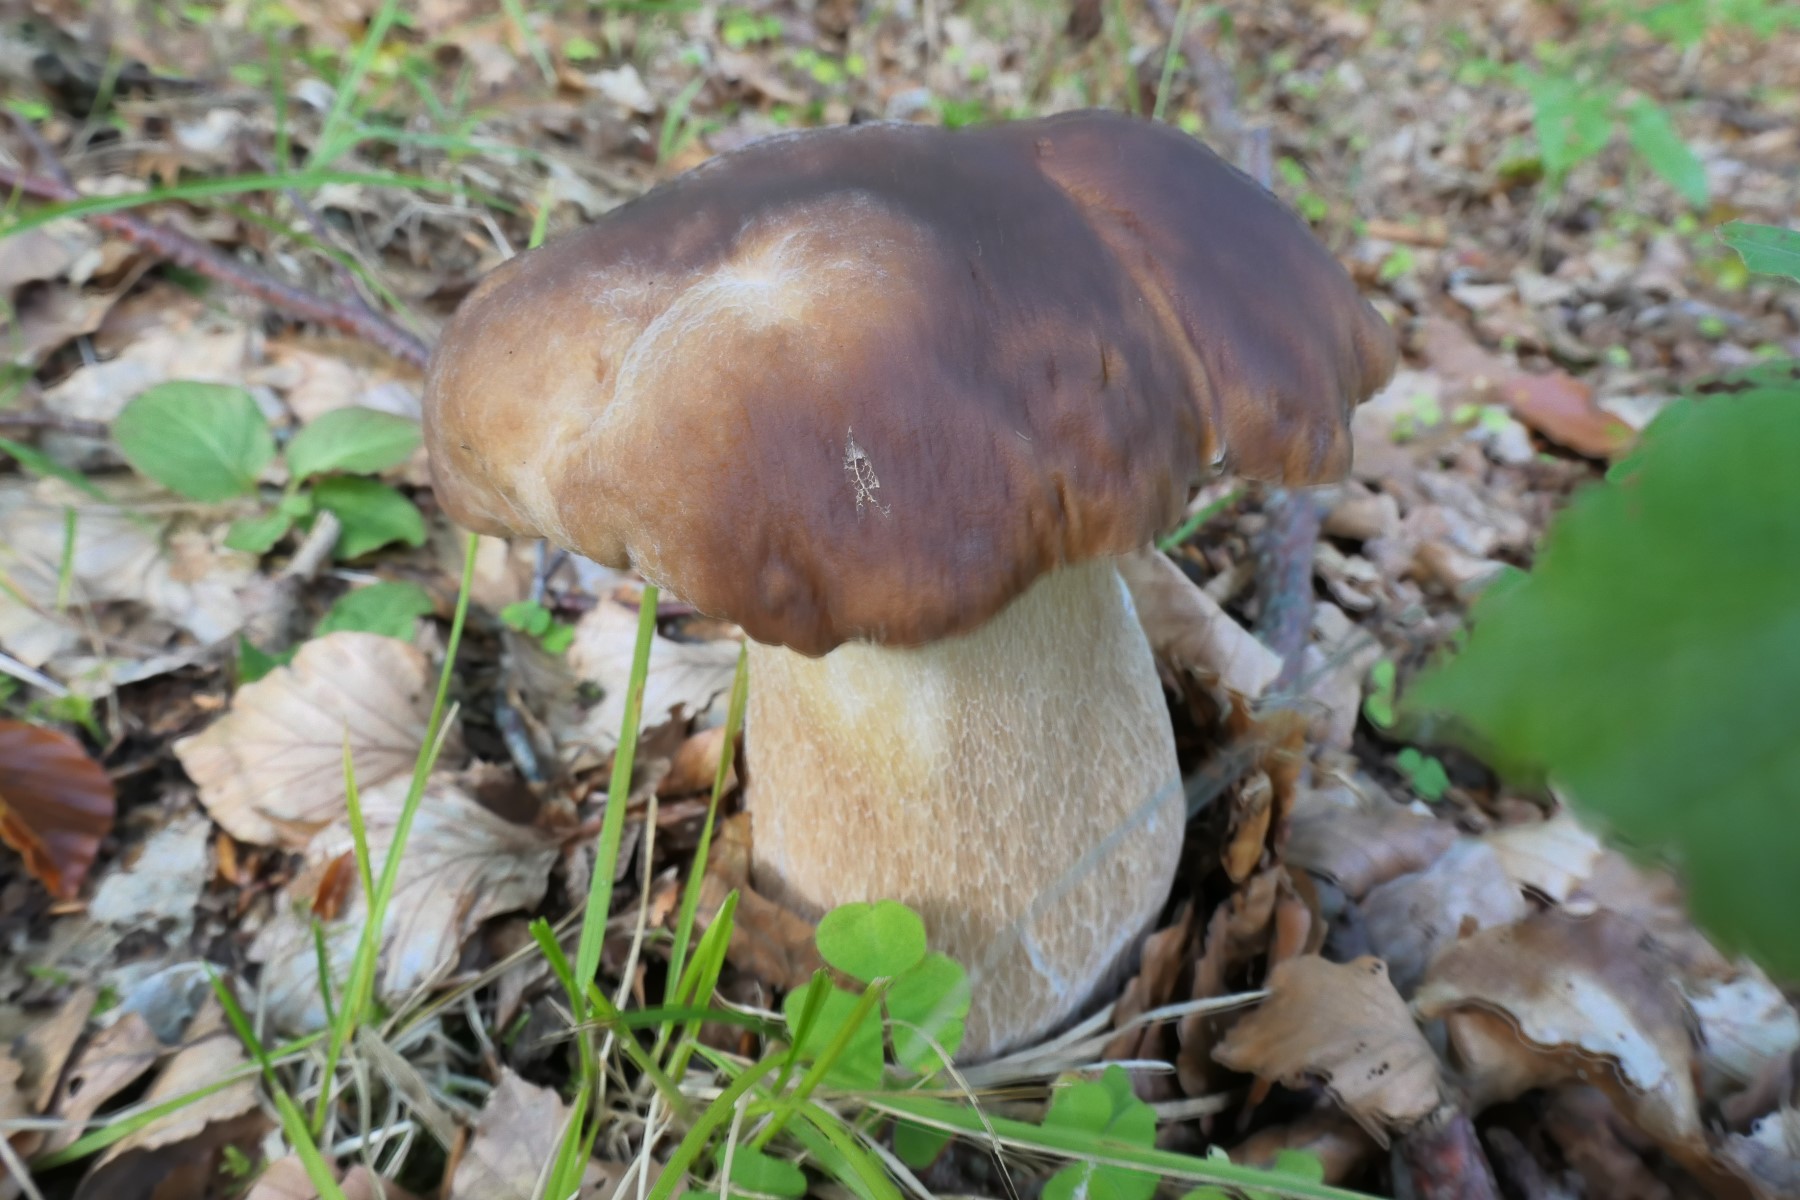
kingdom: Fungi
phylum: Basidiomycota
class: Agaricomycetes
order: Boletales
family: Boletaceae
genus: Boletus
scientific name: Boletus edulis
